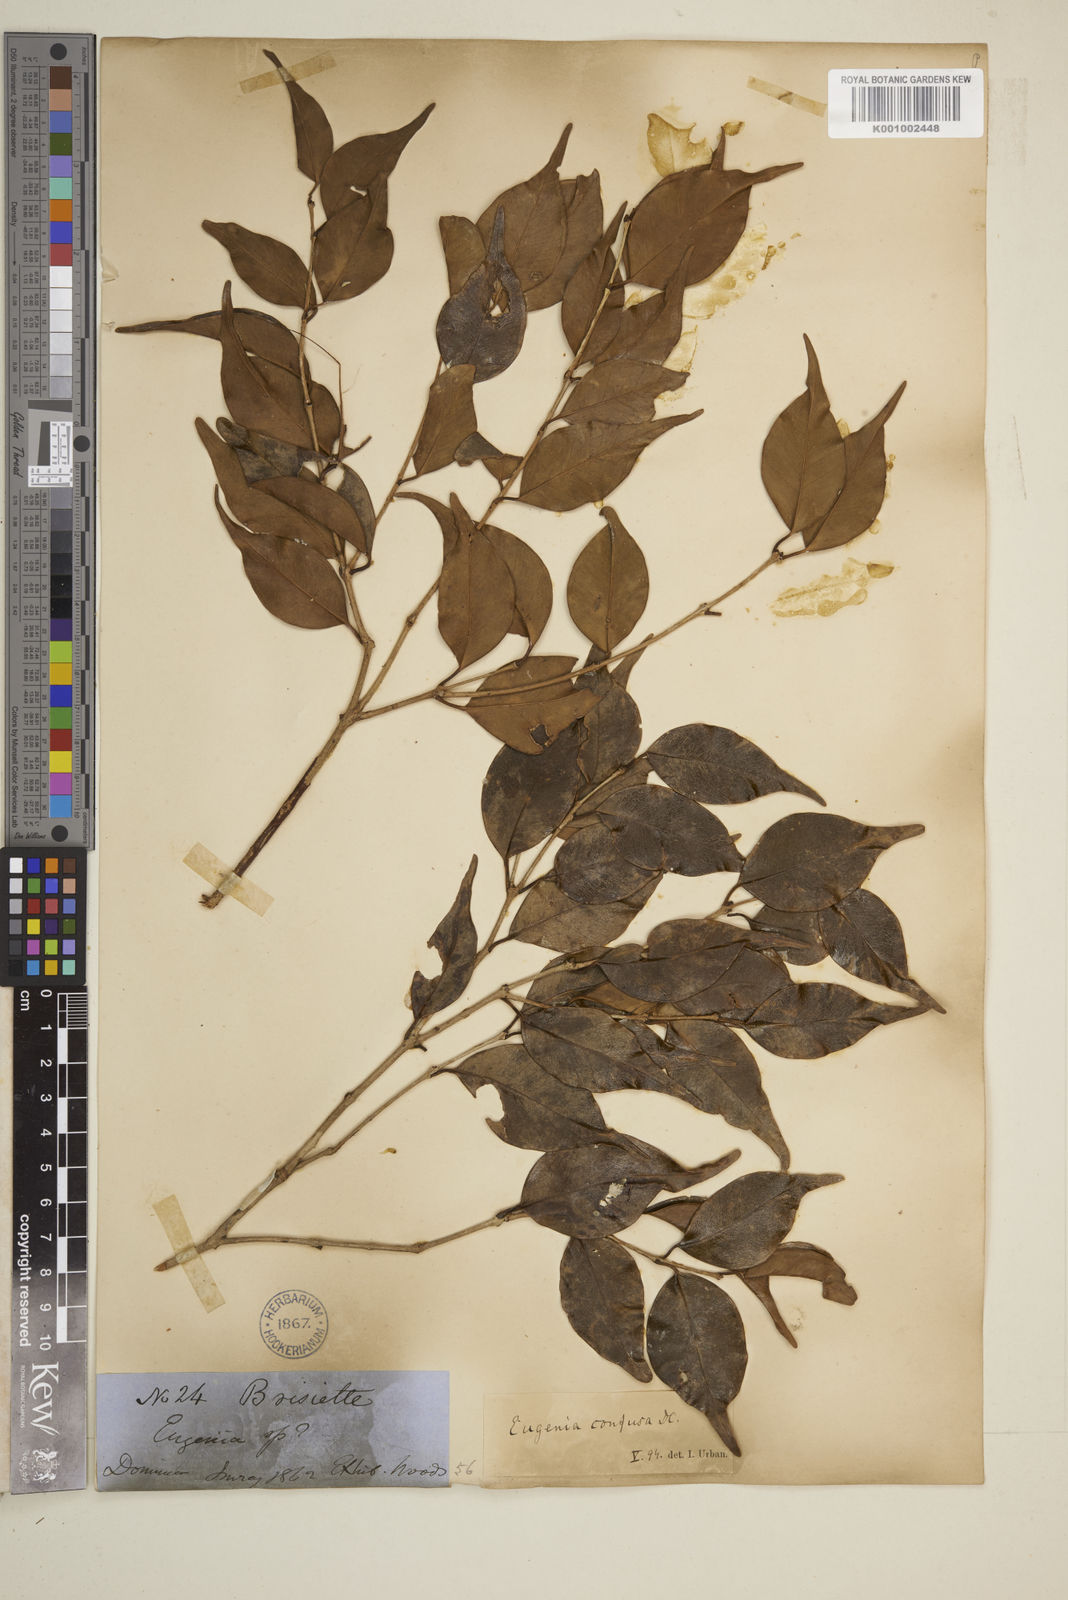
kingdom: Plantae
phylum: Tracheophyta
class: Magnoliopsida
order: Myrtales
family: Myrtaceae
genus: Eugenia
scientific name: Eugenia confusa
